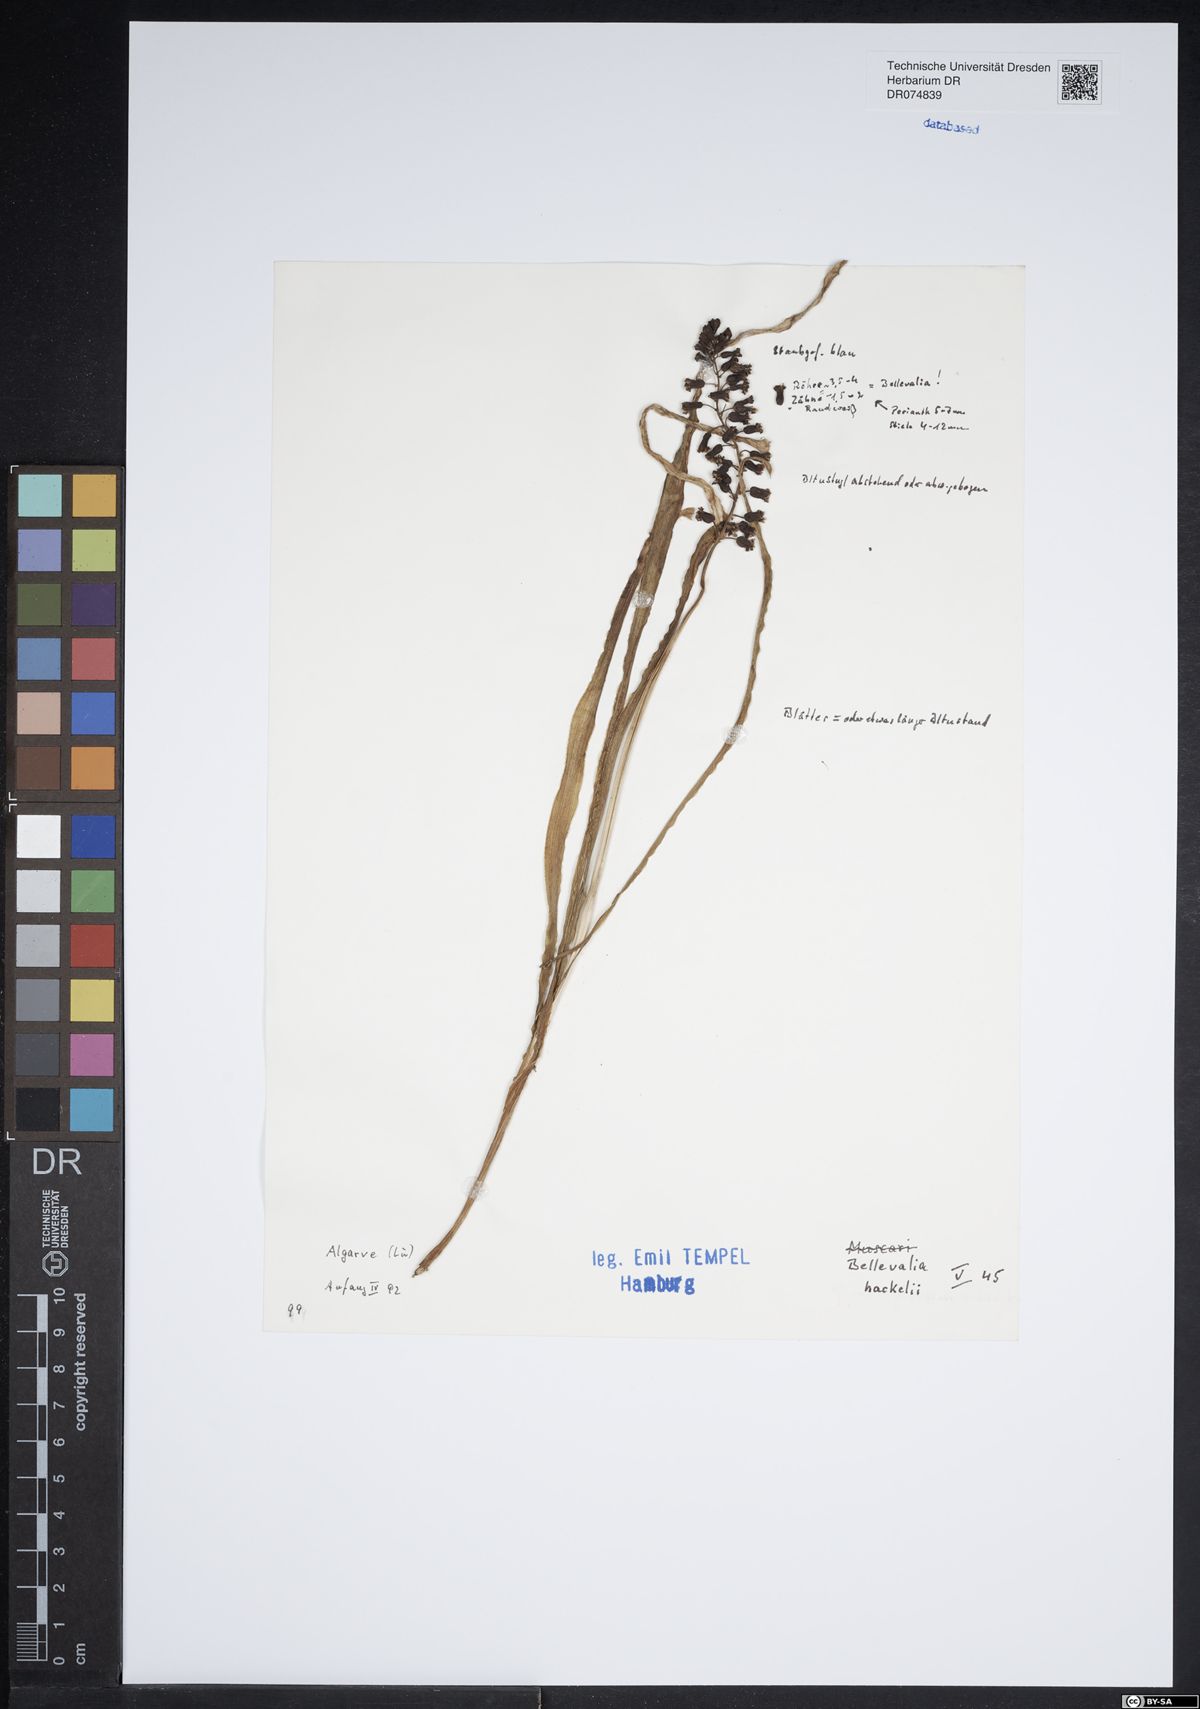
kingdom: Plantae
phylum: Tracheophyta
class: Liliopsida
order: Asparagales
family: Asparagaceae
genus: Bellevalia
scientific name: Bellevalia dubia
